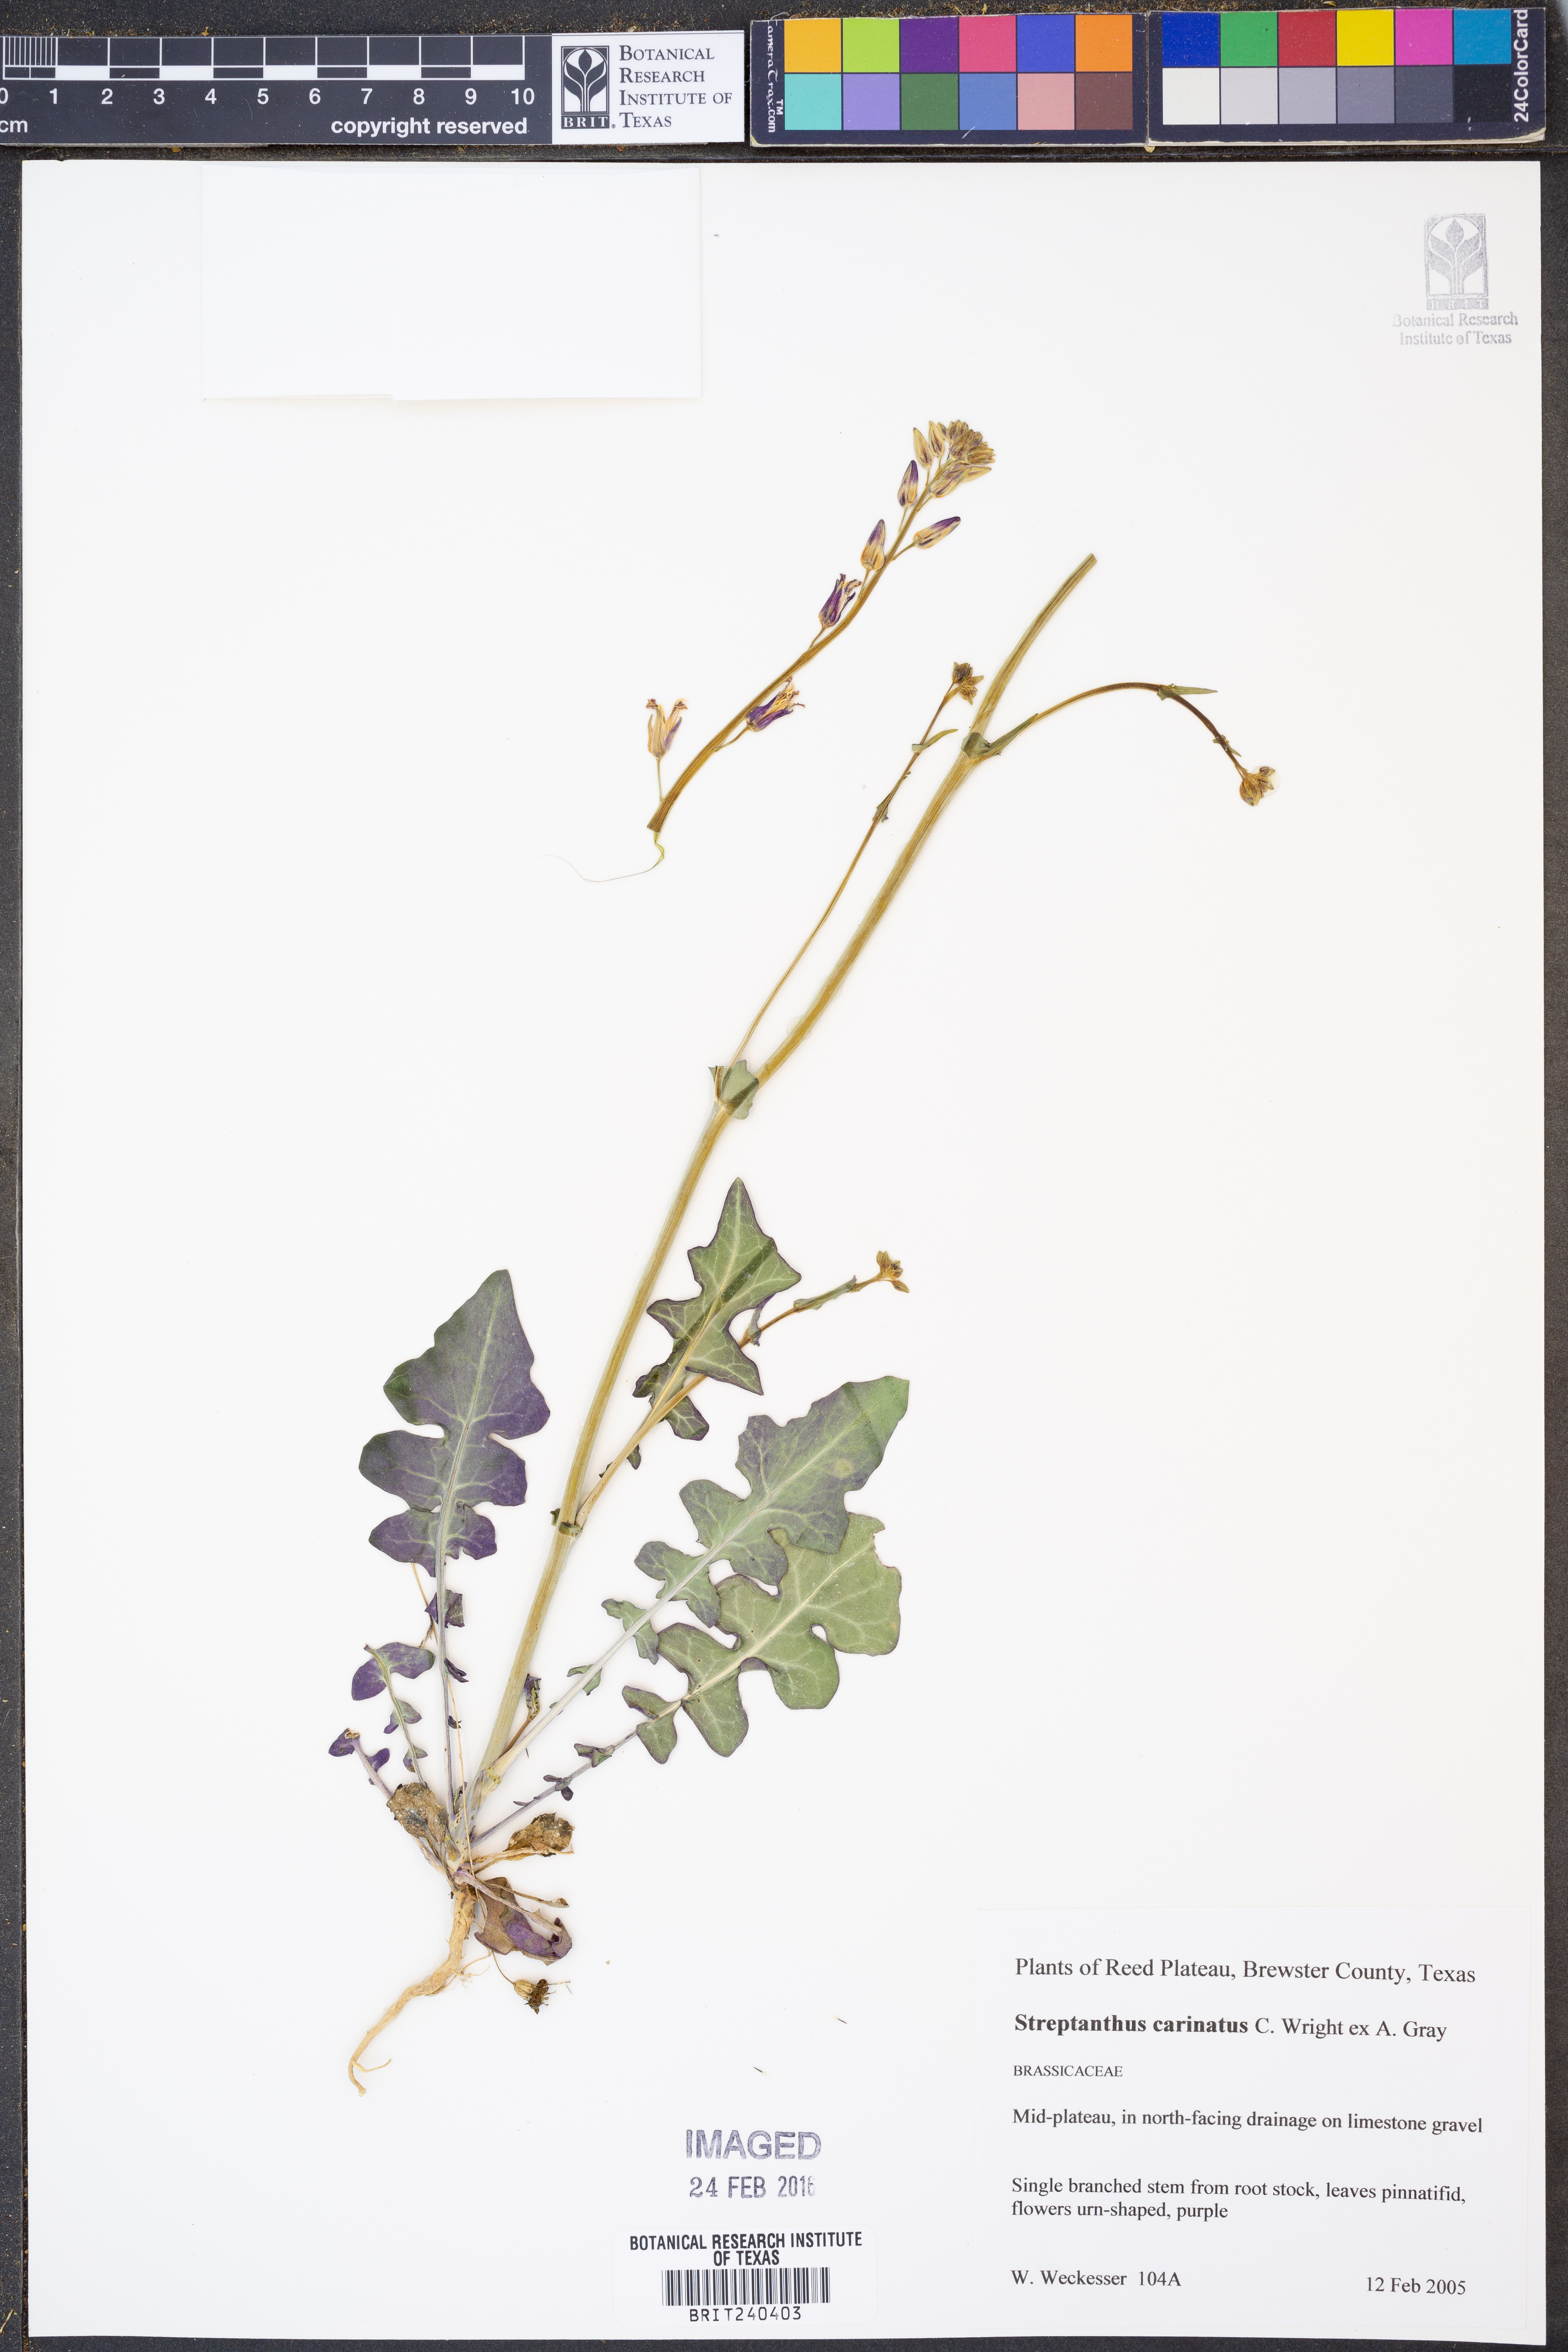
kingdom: Plantae
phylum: Tracheophyta
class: Magnoliopsida
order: Brassicales
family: Brassicaceae
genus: Streptanthus
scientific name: Streptanthus carinatus
